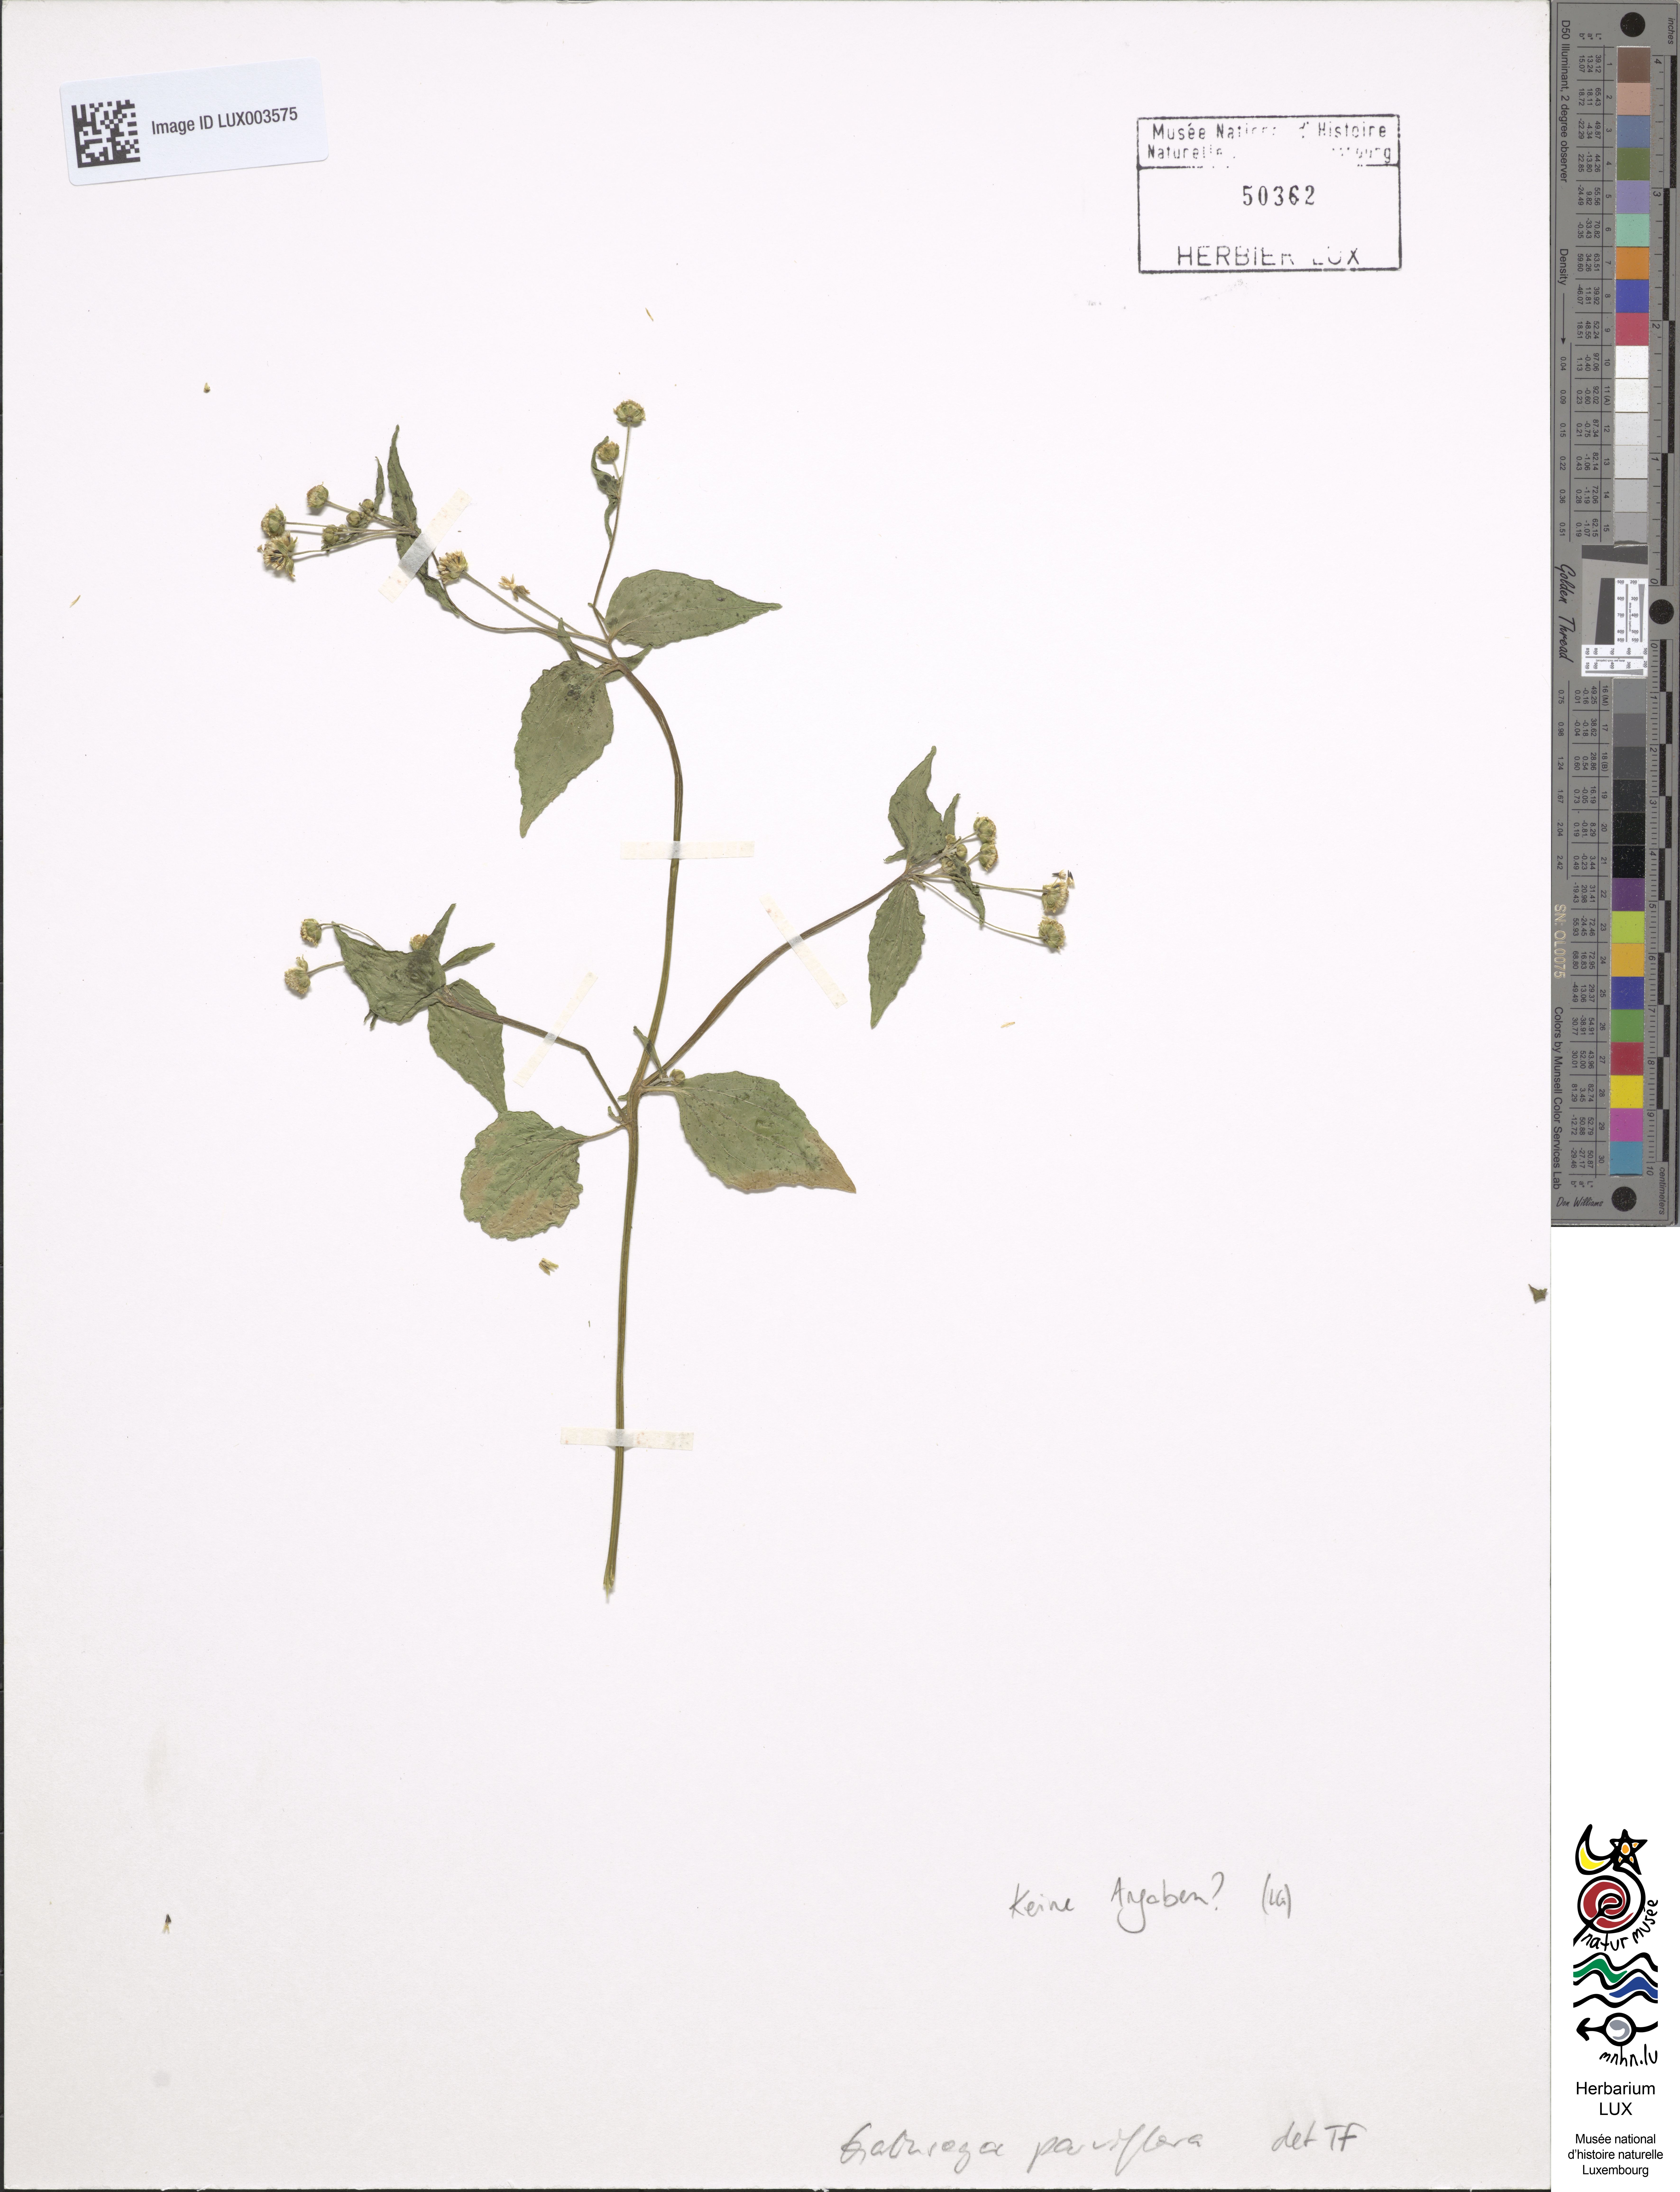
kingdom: Plantae
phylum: Tracheophyta
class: Magnoliopsida
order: Asterales
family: Asteraceae
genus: Galinsoga
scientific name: Galinsoga parviflora
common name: Gallant soldier
